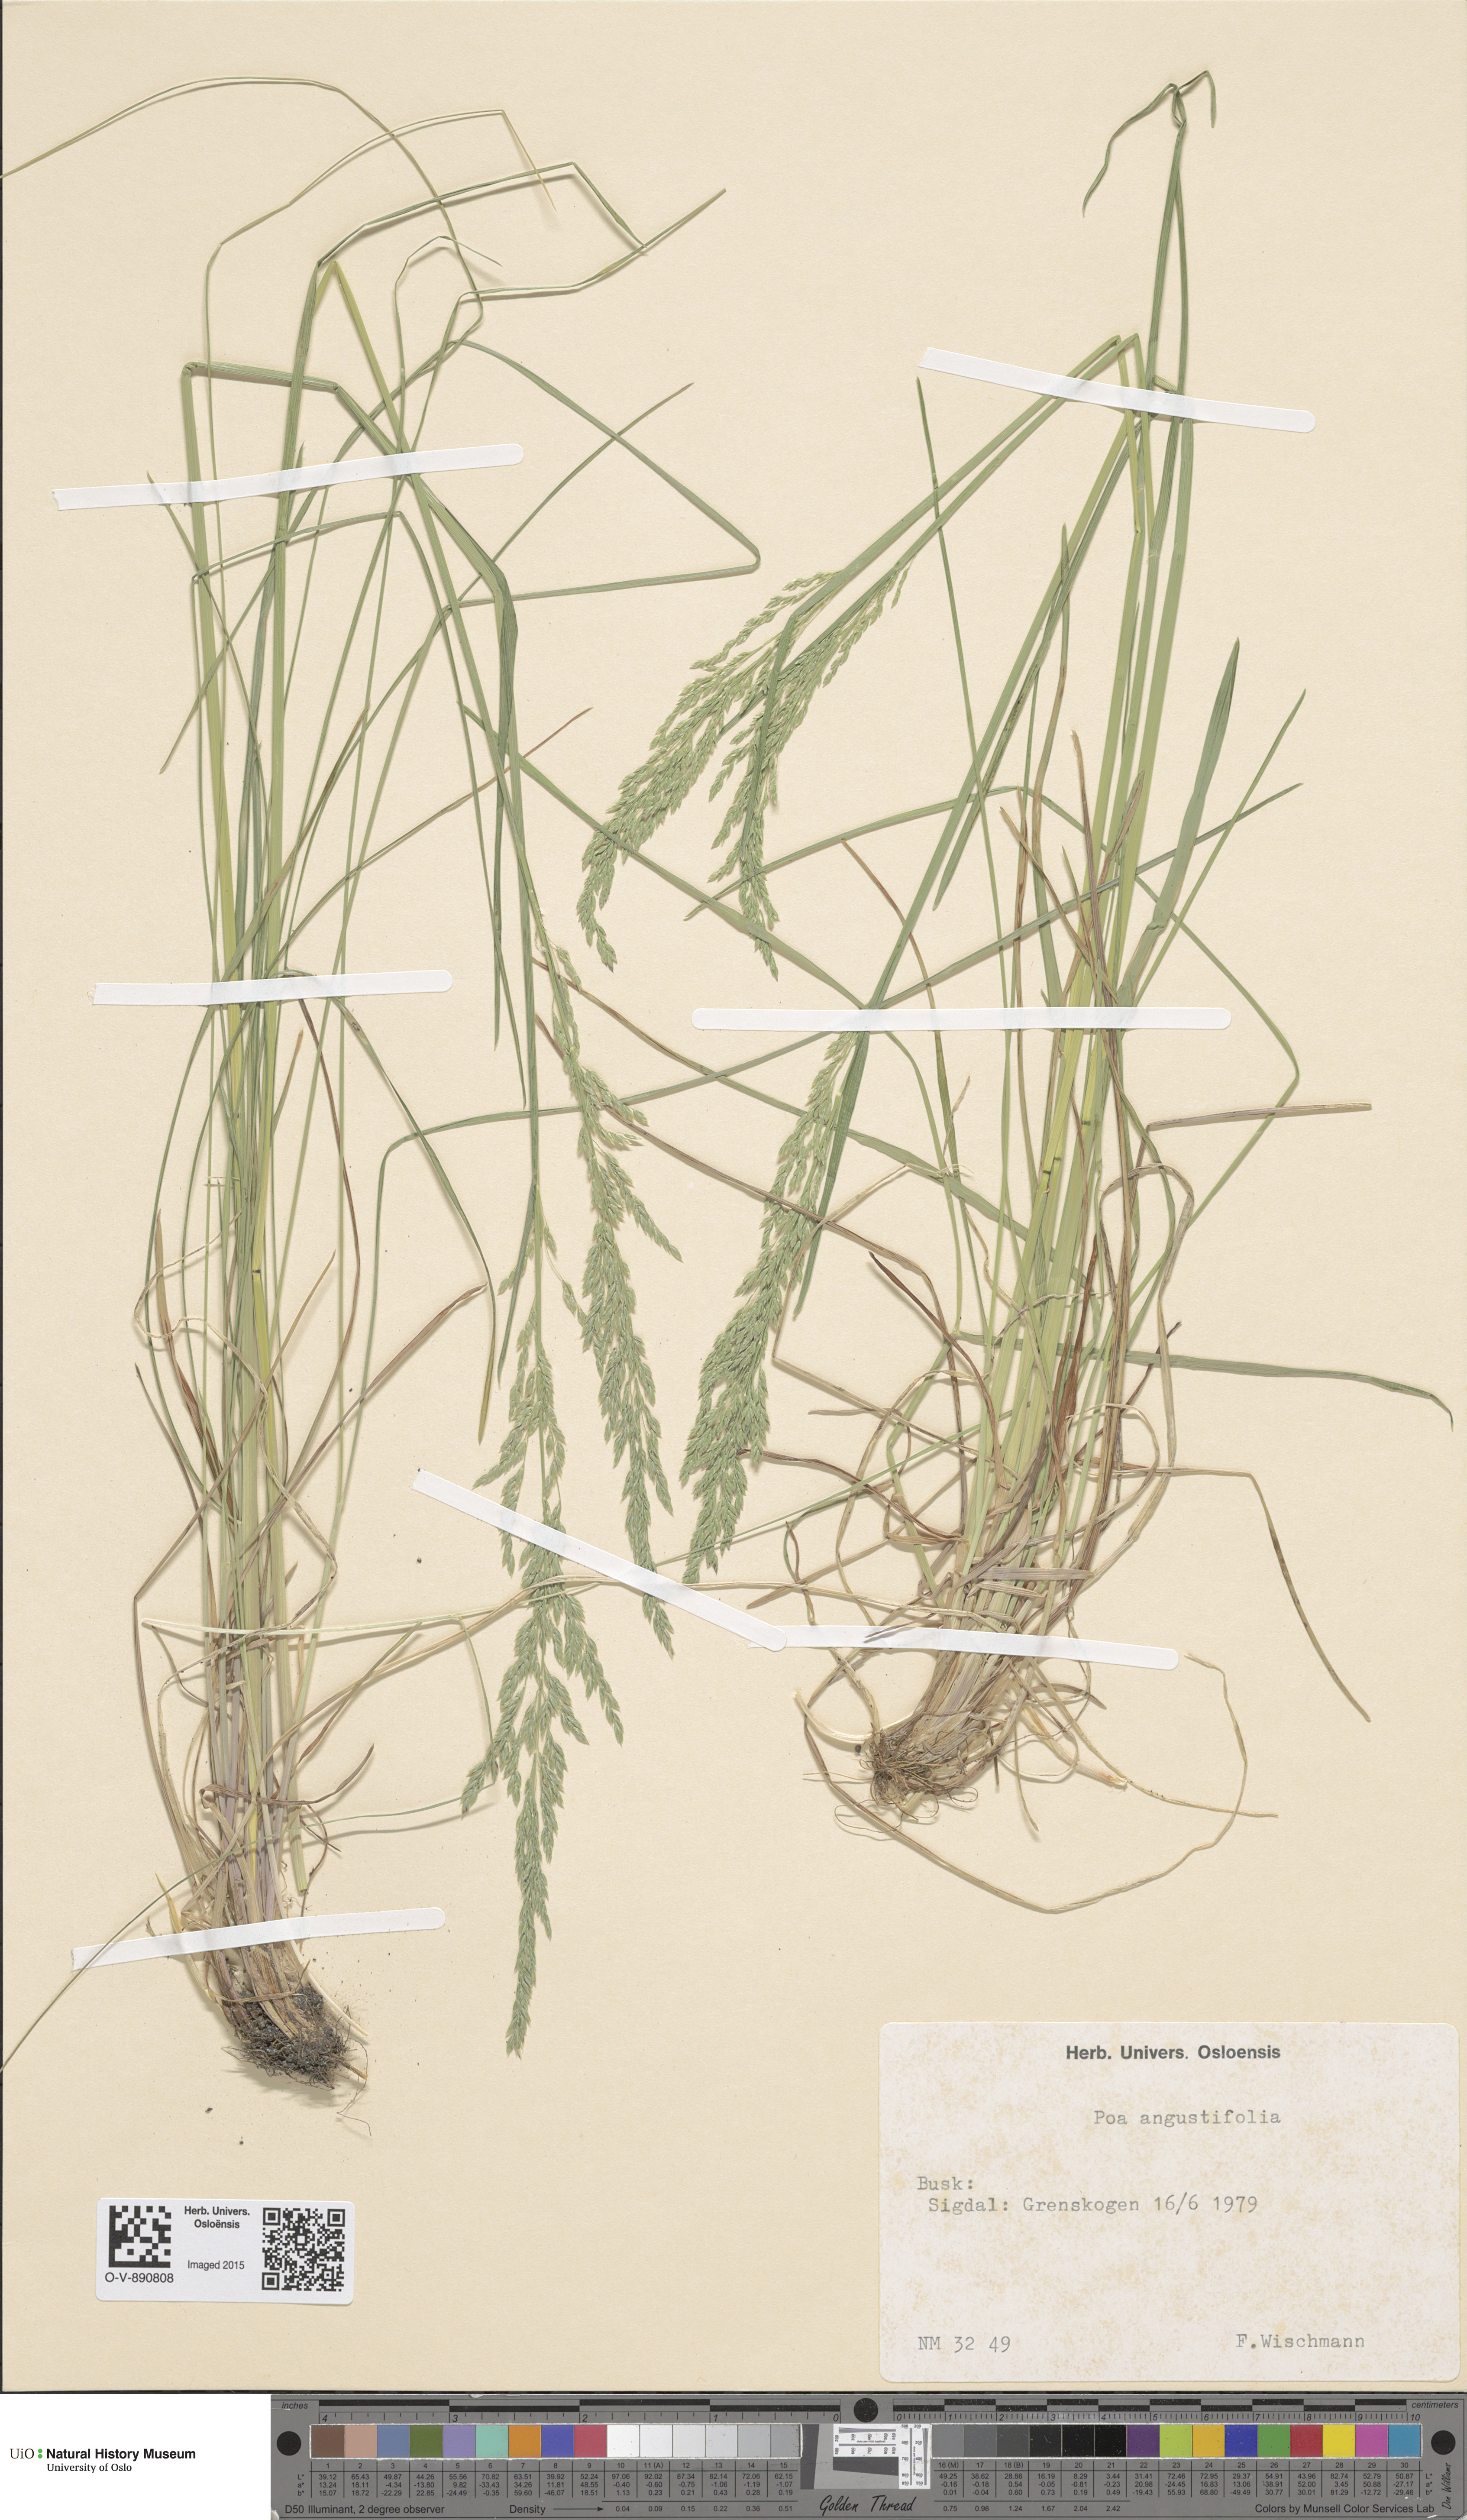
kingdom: Plantae
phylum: Tracheophyta
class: Liliopsida
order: Poales
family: Poaceae
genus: Poa
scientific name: Poa angustifolia
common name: Narrow-leaved meadow-grass
